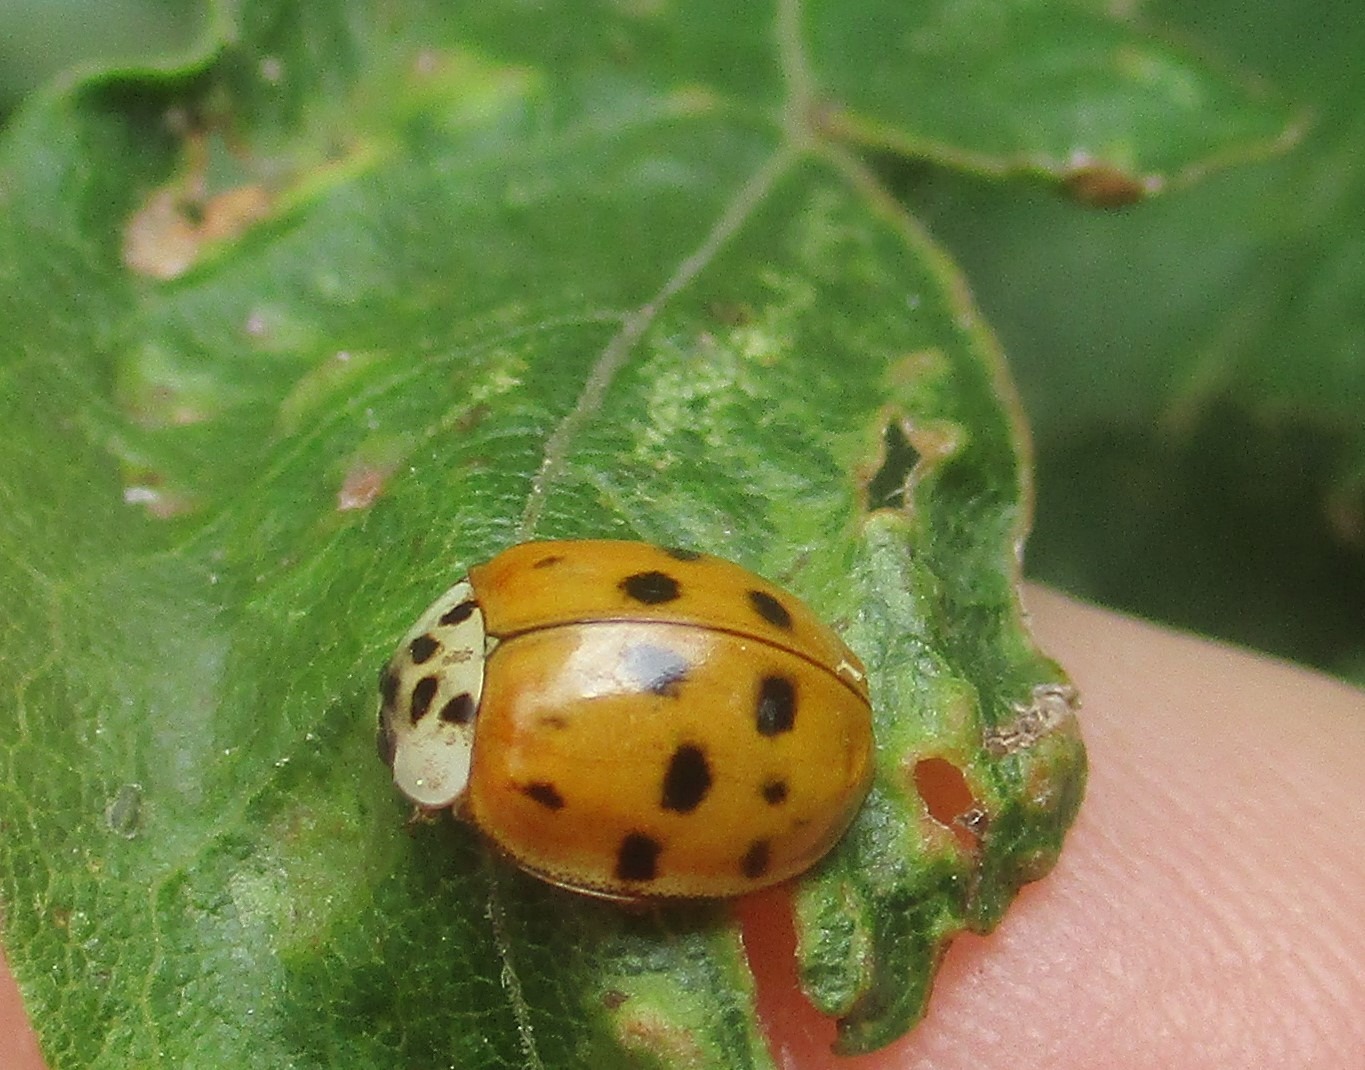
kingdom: Animalia
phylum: Arthropoda
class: Insecta
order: Coleoptera
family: Coccinellidae
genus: Harmonia
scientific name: Harmonia axyridis
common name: Harlekinmariehøne
